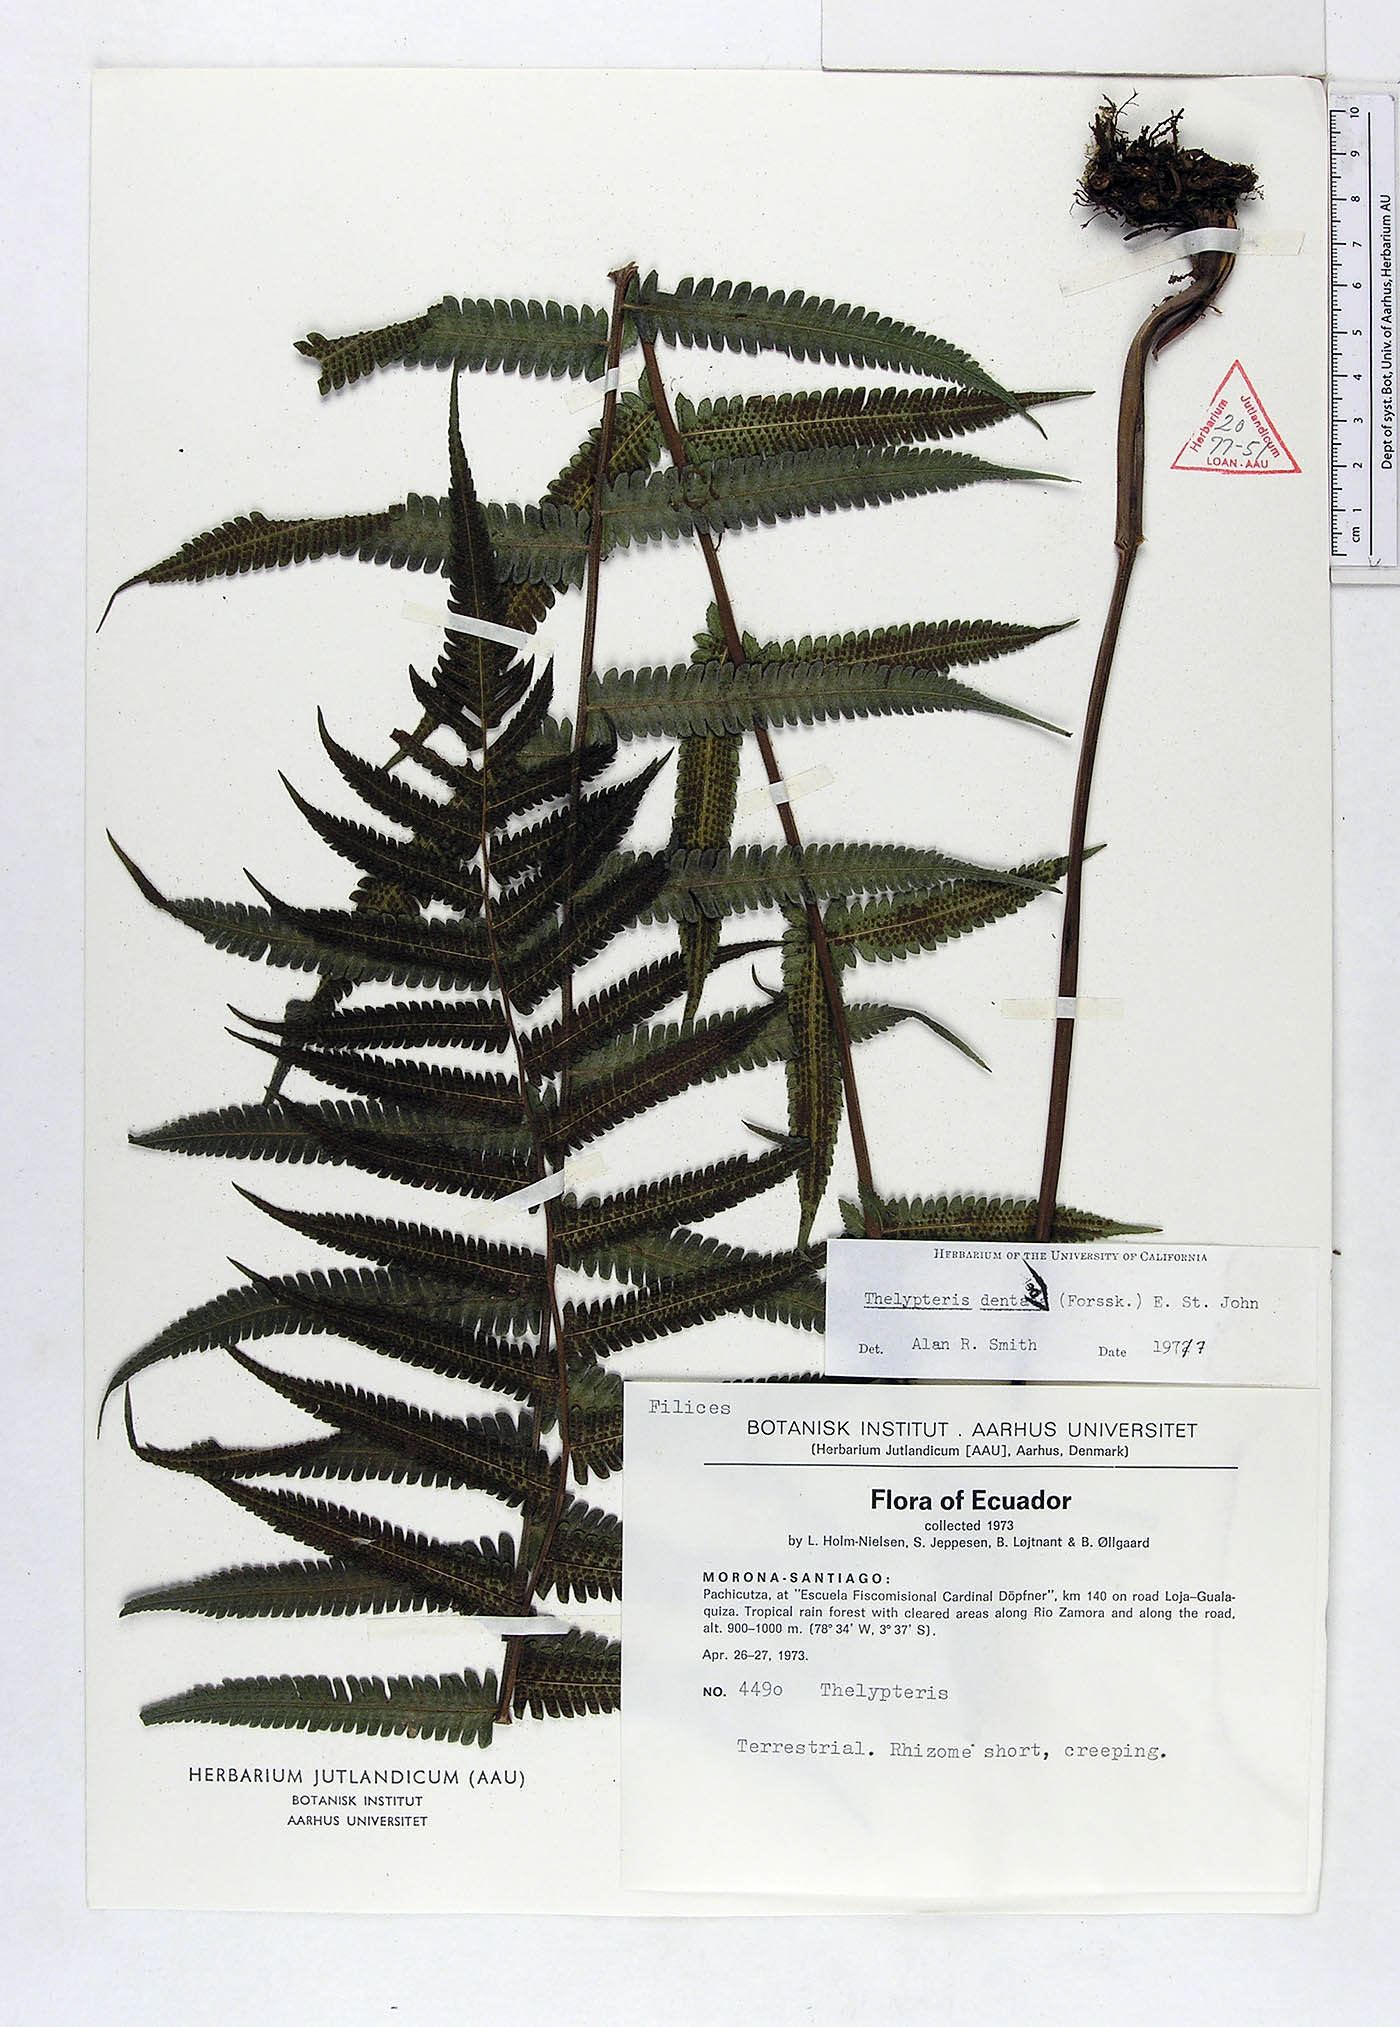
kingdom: Plantae
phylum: Tracheophyta
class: Polypodiopsida
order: Polypodiales
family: Thelypteridaceae
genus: Christella
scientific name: Christella dentata
